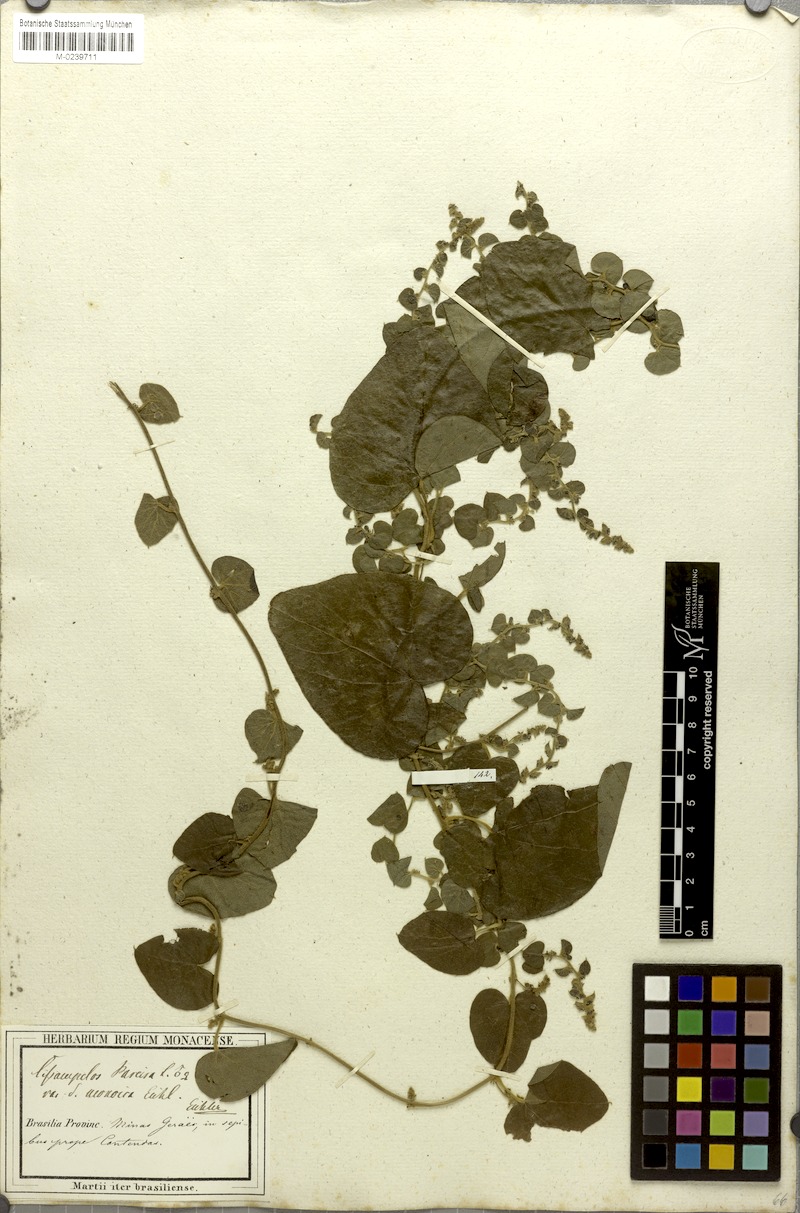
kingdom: Plantae
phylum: Tracheophyta
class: Magnoliopsida
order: Ranunculales
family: Menispermaceae
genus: Cissampelos
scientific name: Cissampelos pareira
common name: Velvetleaf
